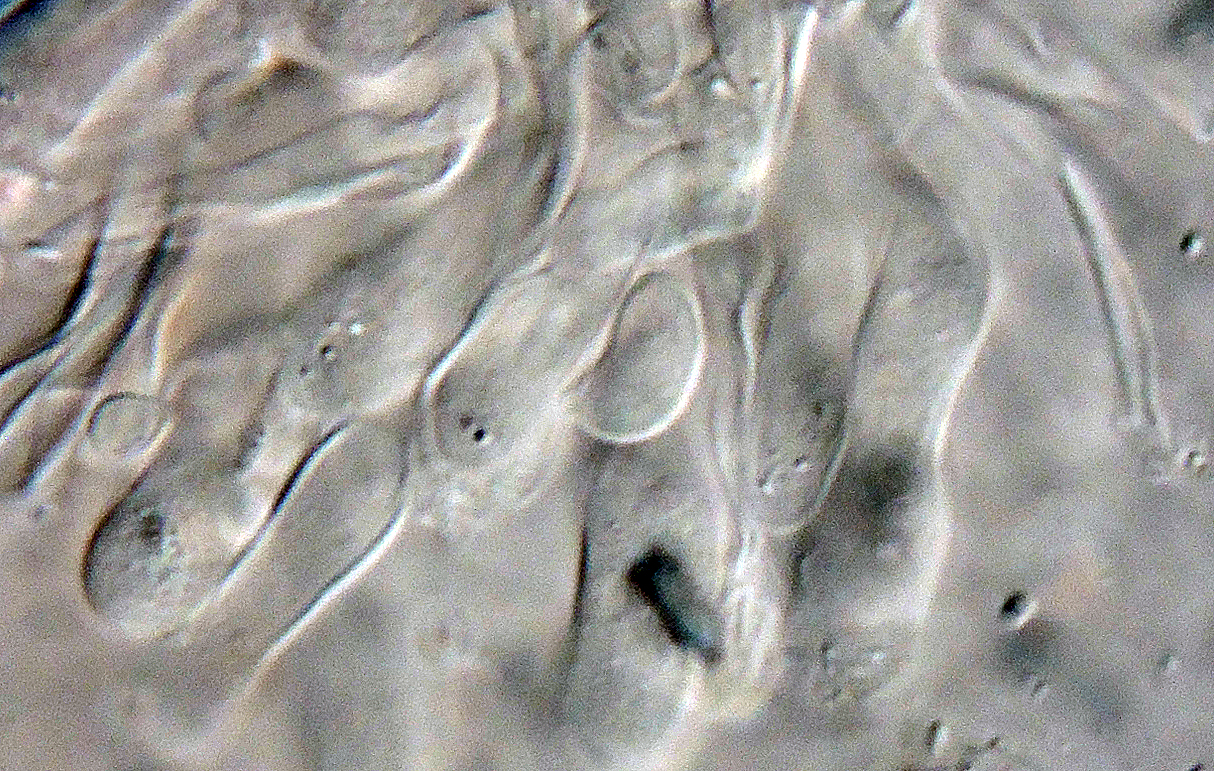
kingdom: Fungi
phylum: Basidiomycota
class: Agaricomycetes
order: Agaricales
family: Pleurotaceae
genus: Hohenbuehelia
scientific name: Hohenbuehelia
